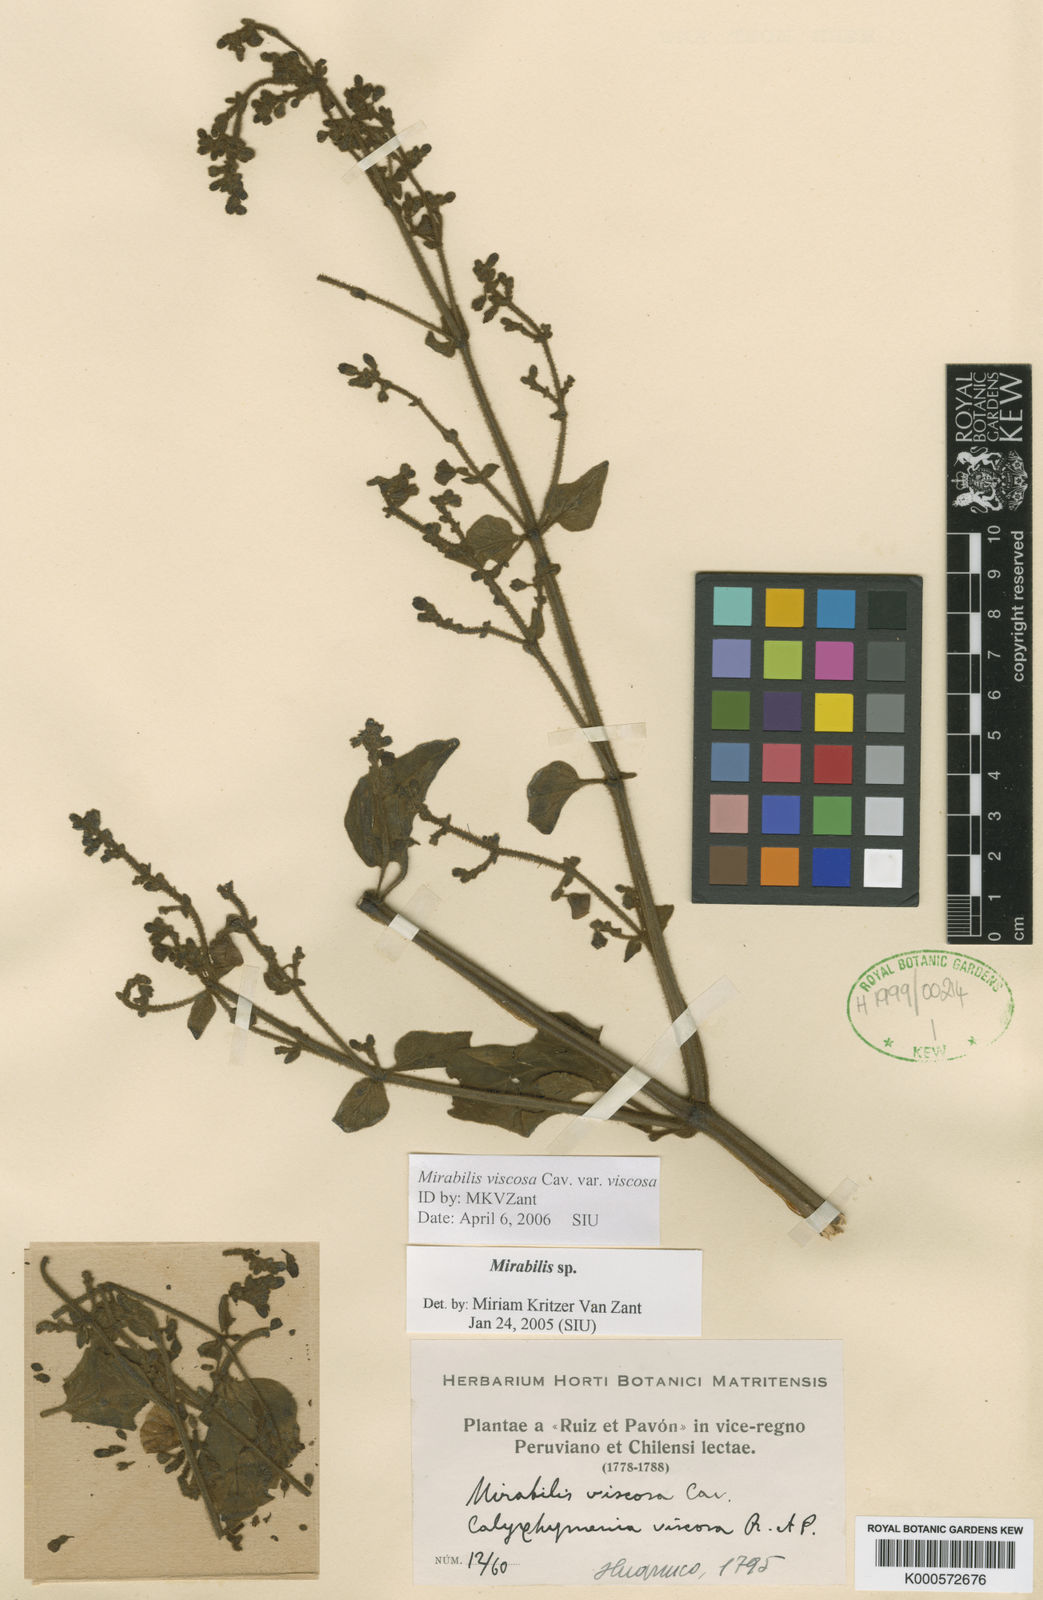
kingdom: Plantae
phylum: Tracheophyta
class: Magnoliopsida
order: Caryophyllales
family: Nyctaginaceae
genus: Mirabilis
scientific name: Mirabilis viscosa
